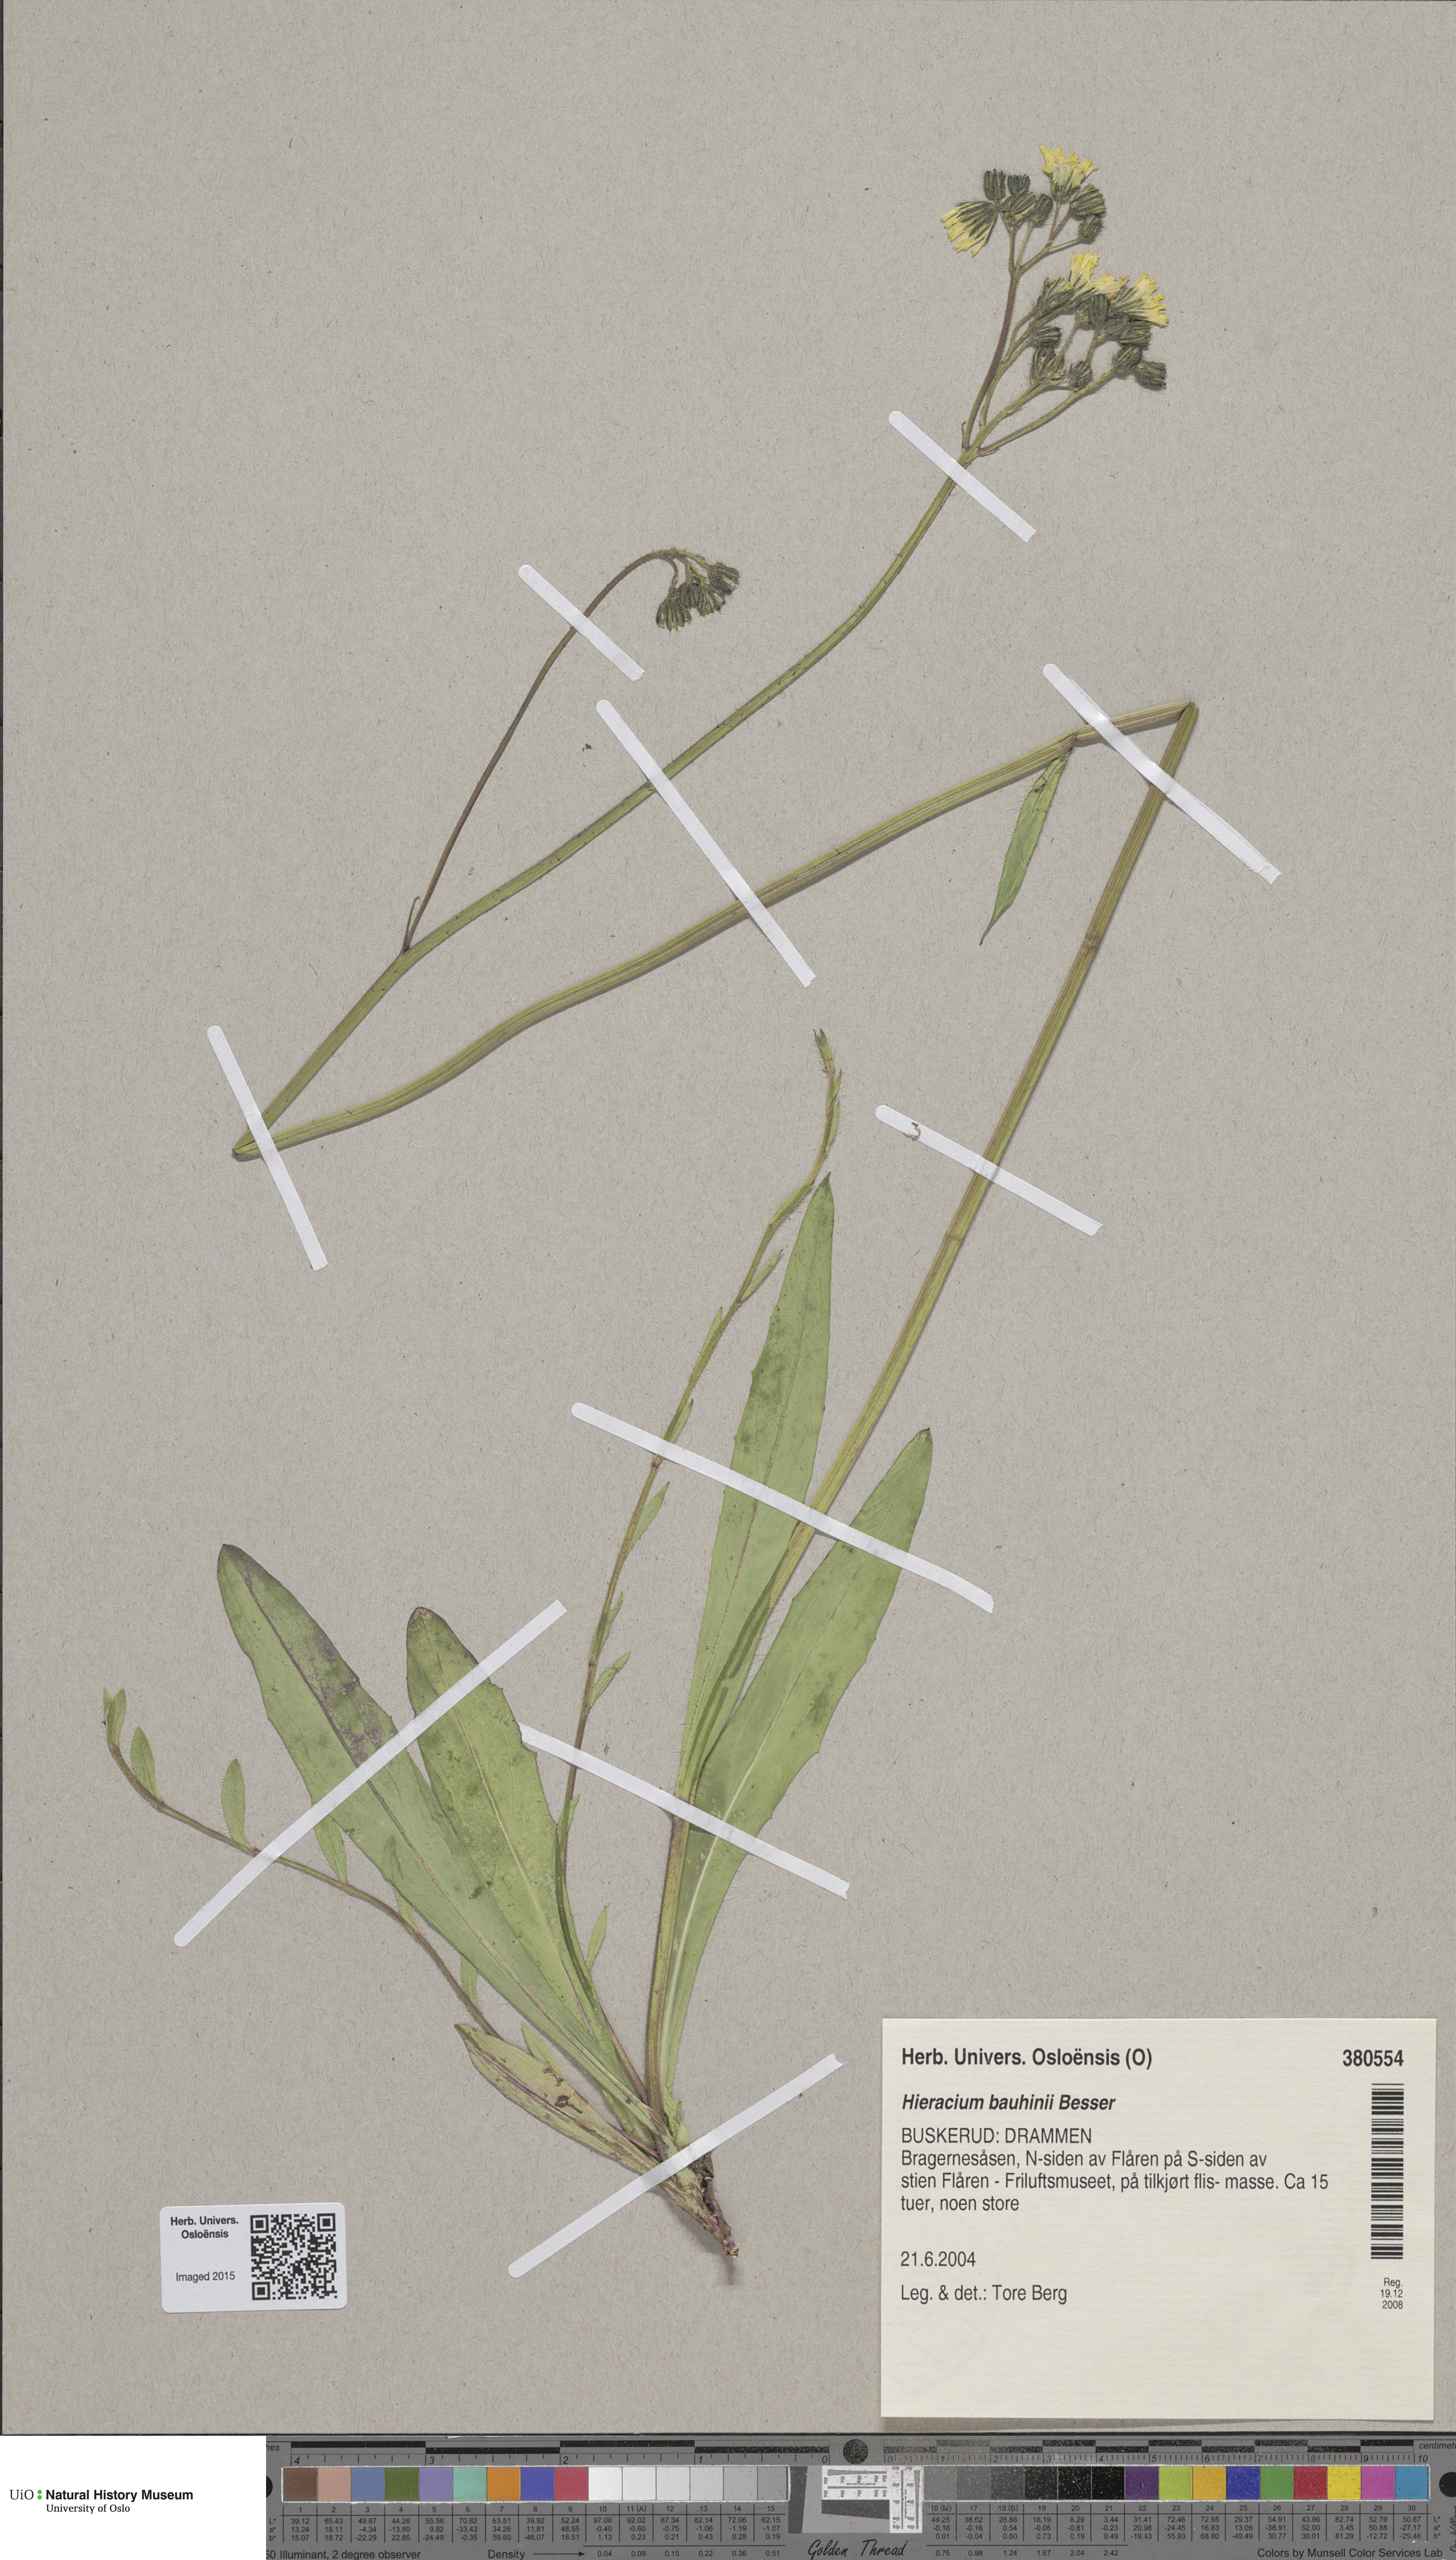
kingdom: Plantae
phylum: Tracheophyta
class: Magnoliopsida
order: Asterales
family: Asteraceae
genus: Pilosella
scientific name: Pilosella bauhini
